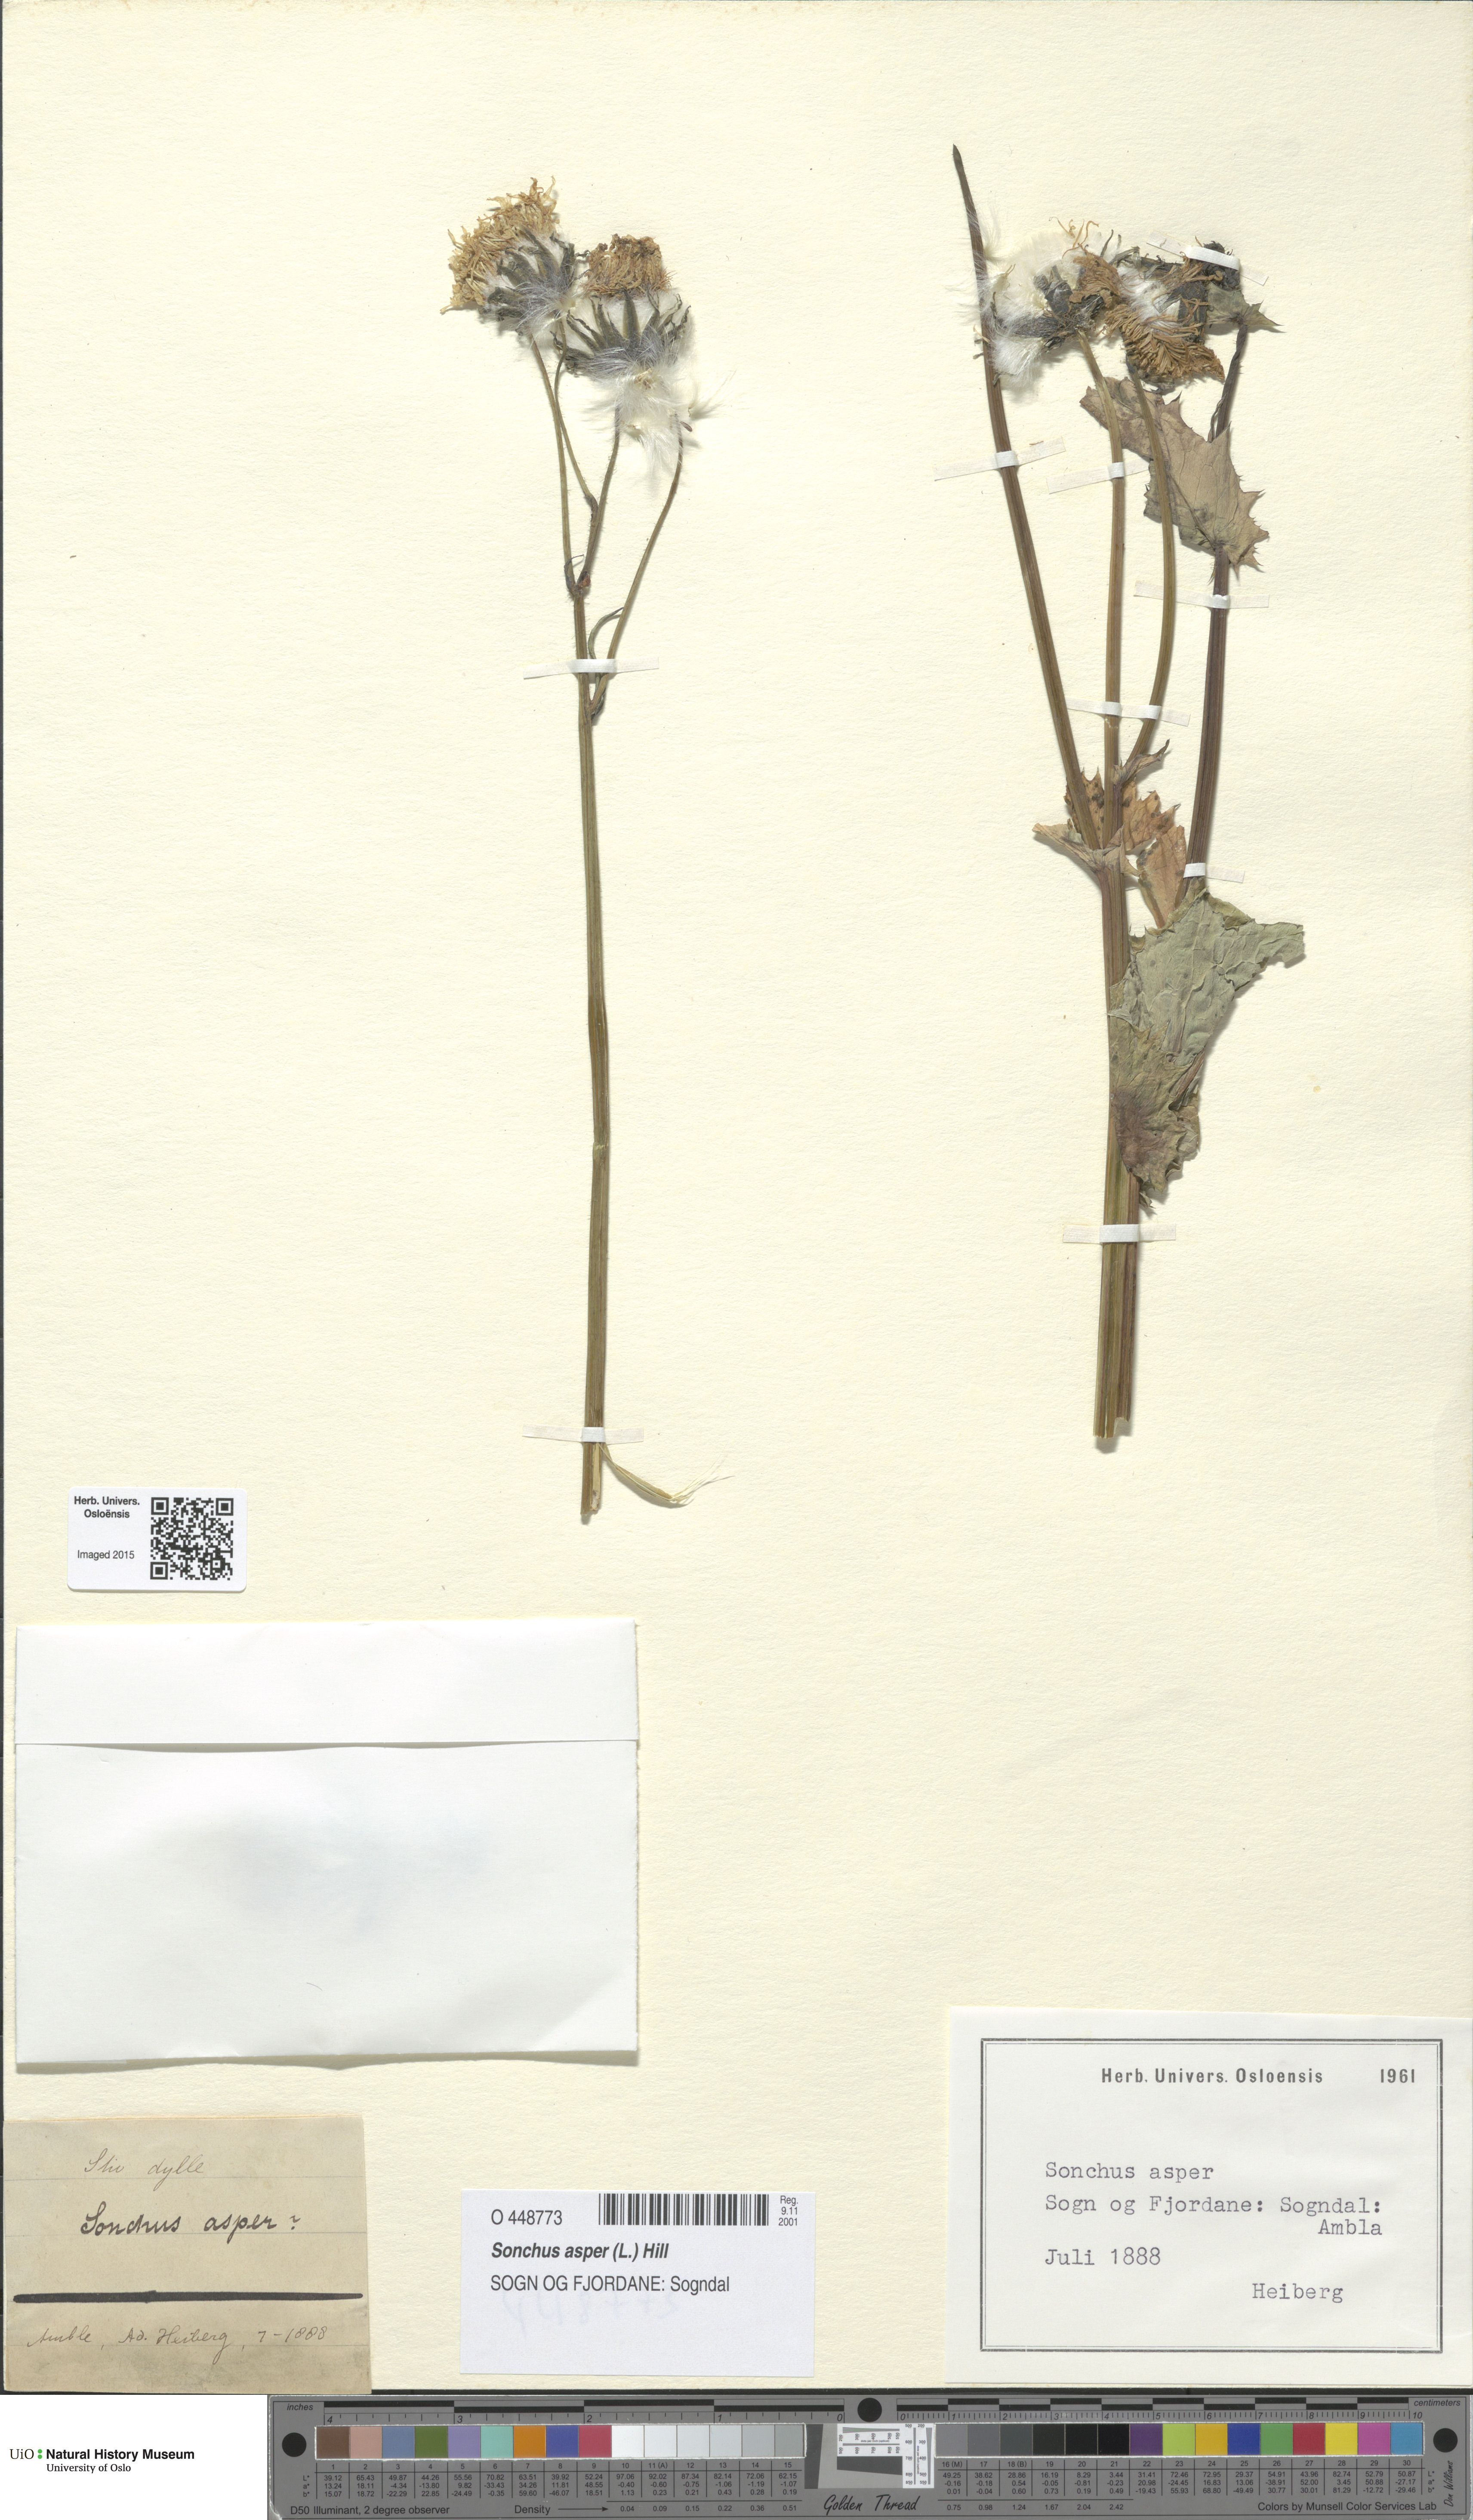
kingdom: Plantae
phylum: Tracheophyta
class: Magnoliopsida
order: Asterales
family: Asteraceae
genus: Sonchus
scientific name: Sonchus asper
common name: Prickly sow-thistle
